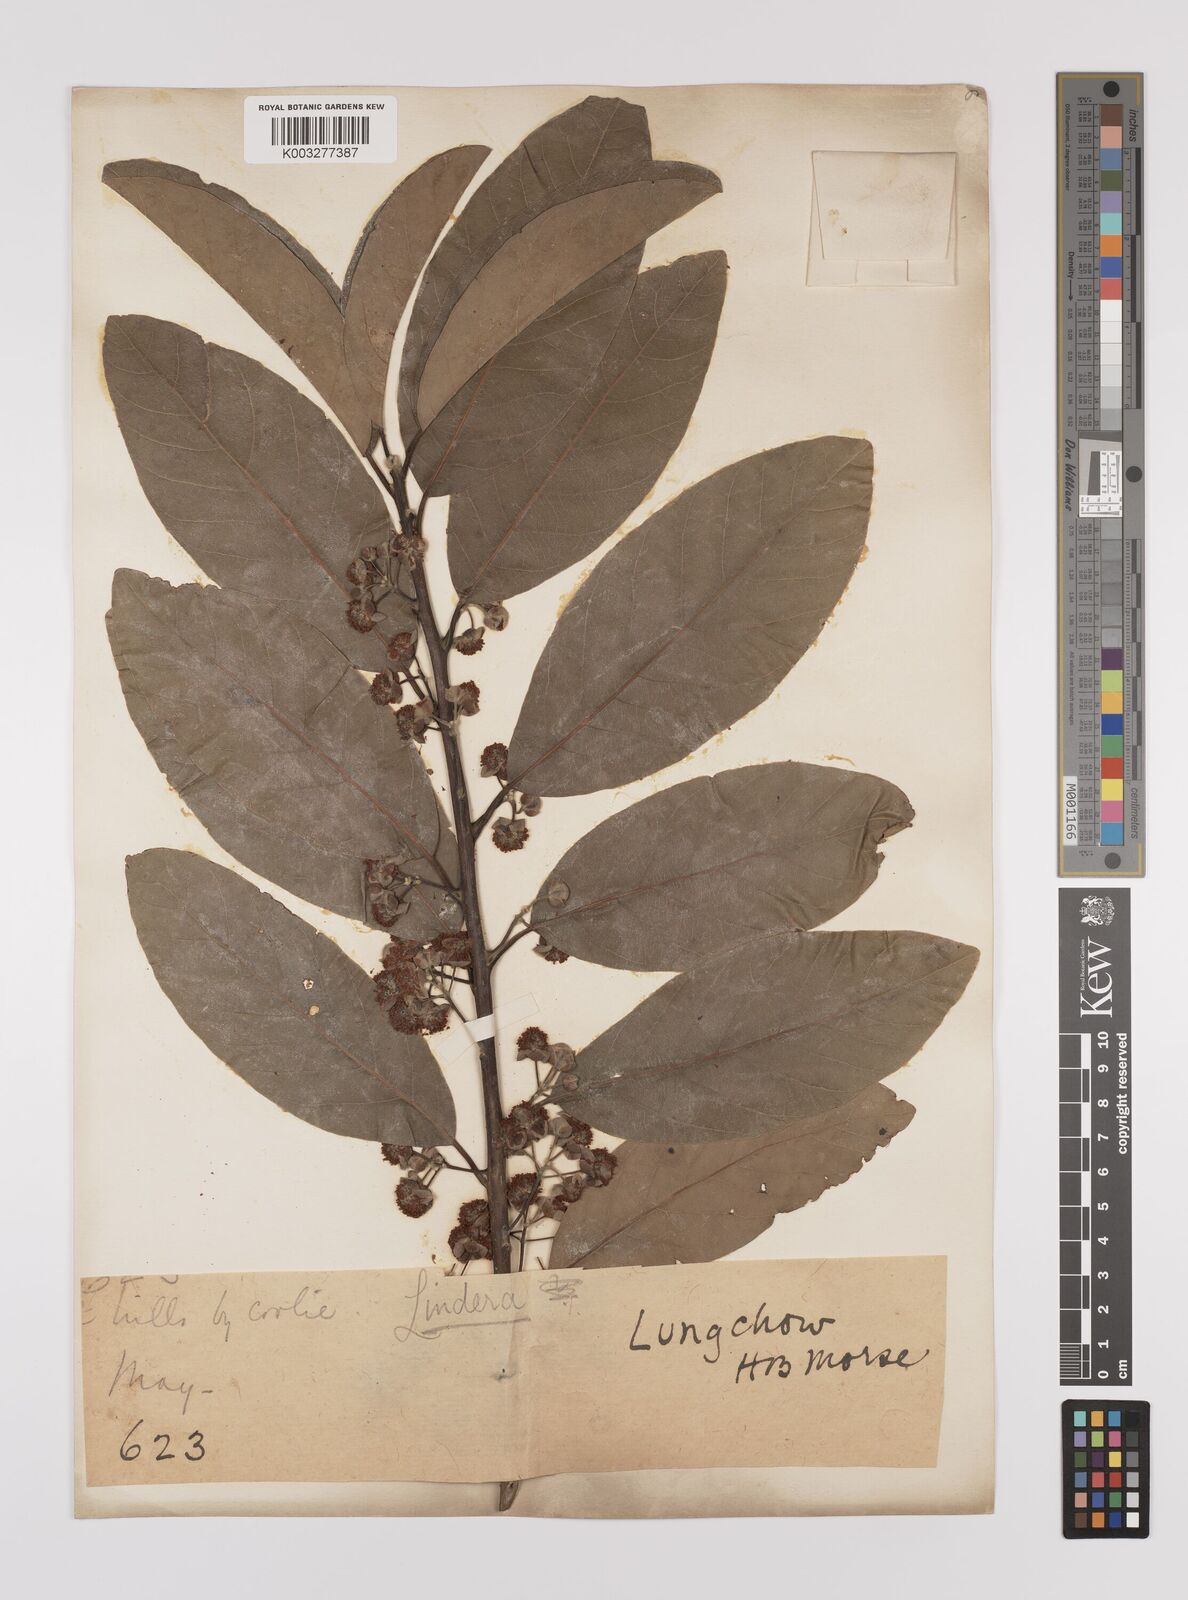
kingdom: Plantae
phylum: Tracheophyta
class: Magnoliopsida
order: Laurales
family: Lauraceae
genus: Litsea
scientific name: Litsea glutinosa
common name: Indian-laurel
